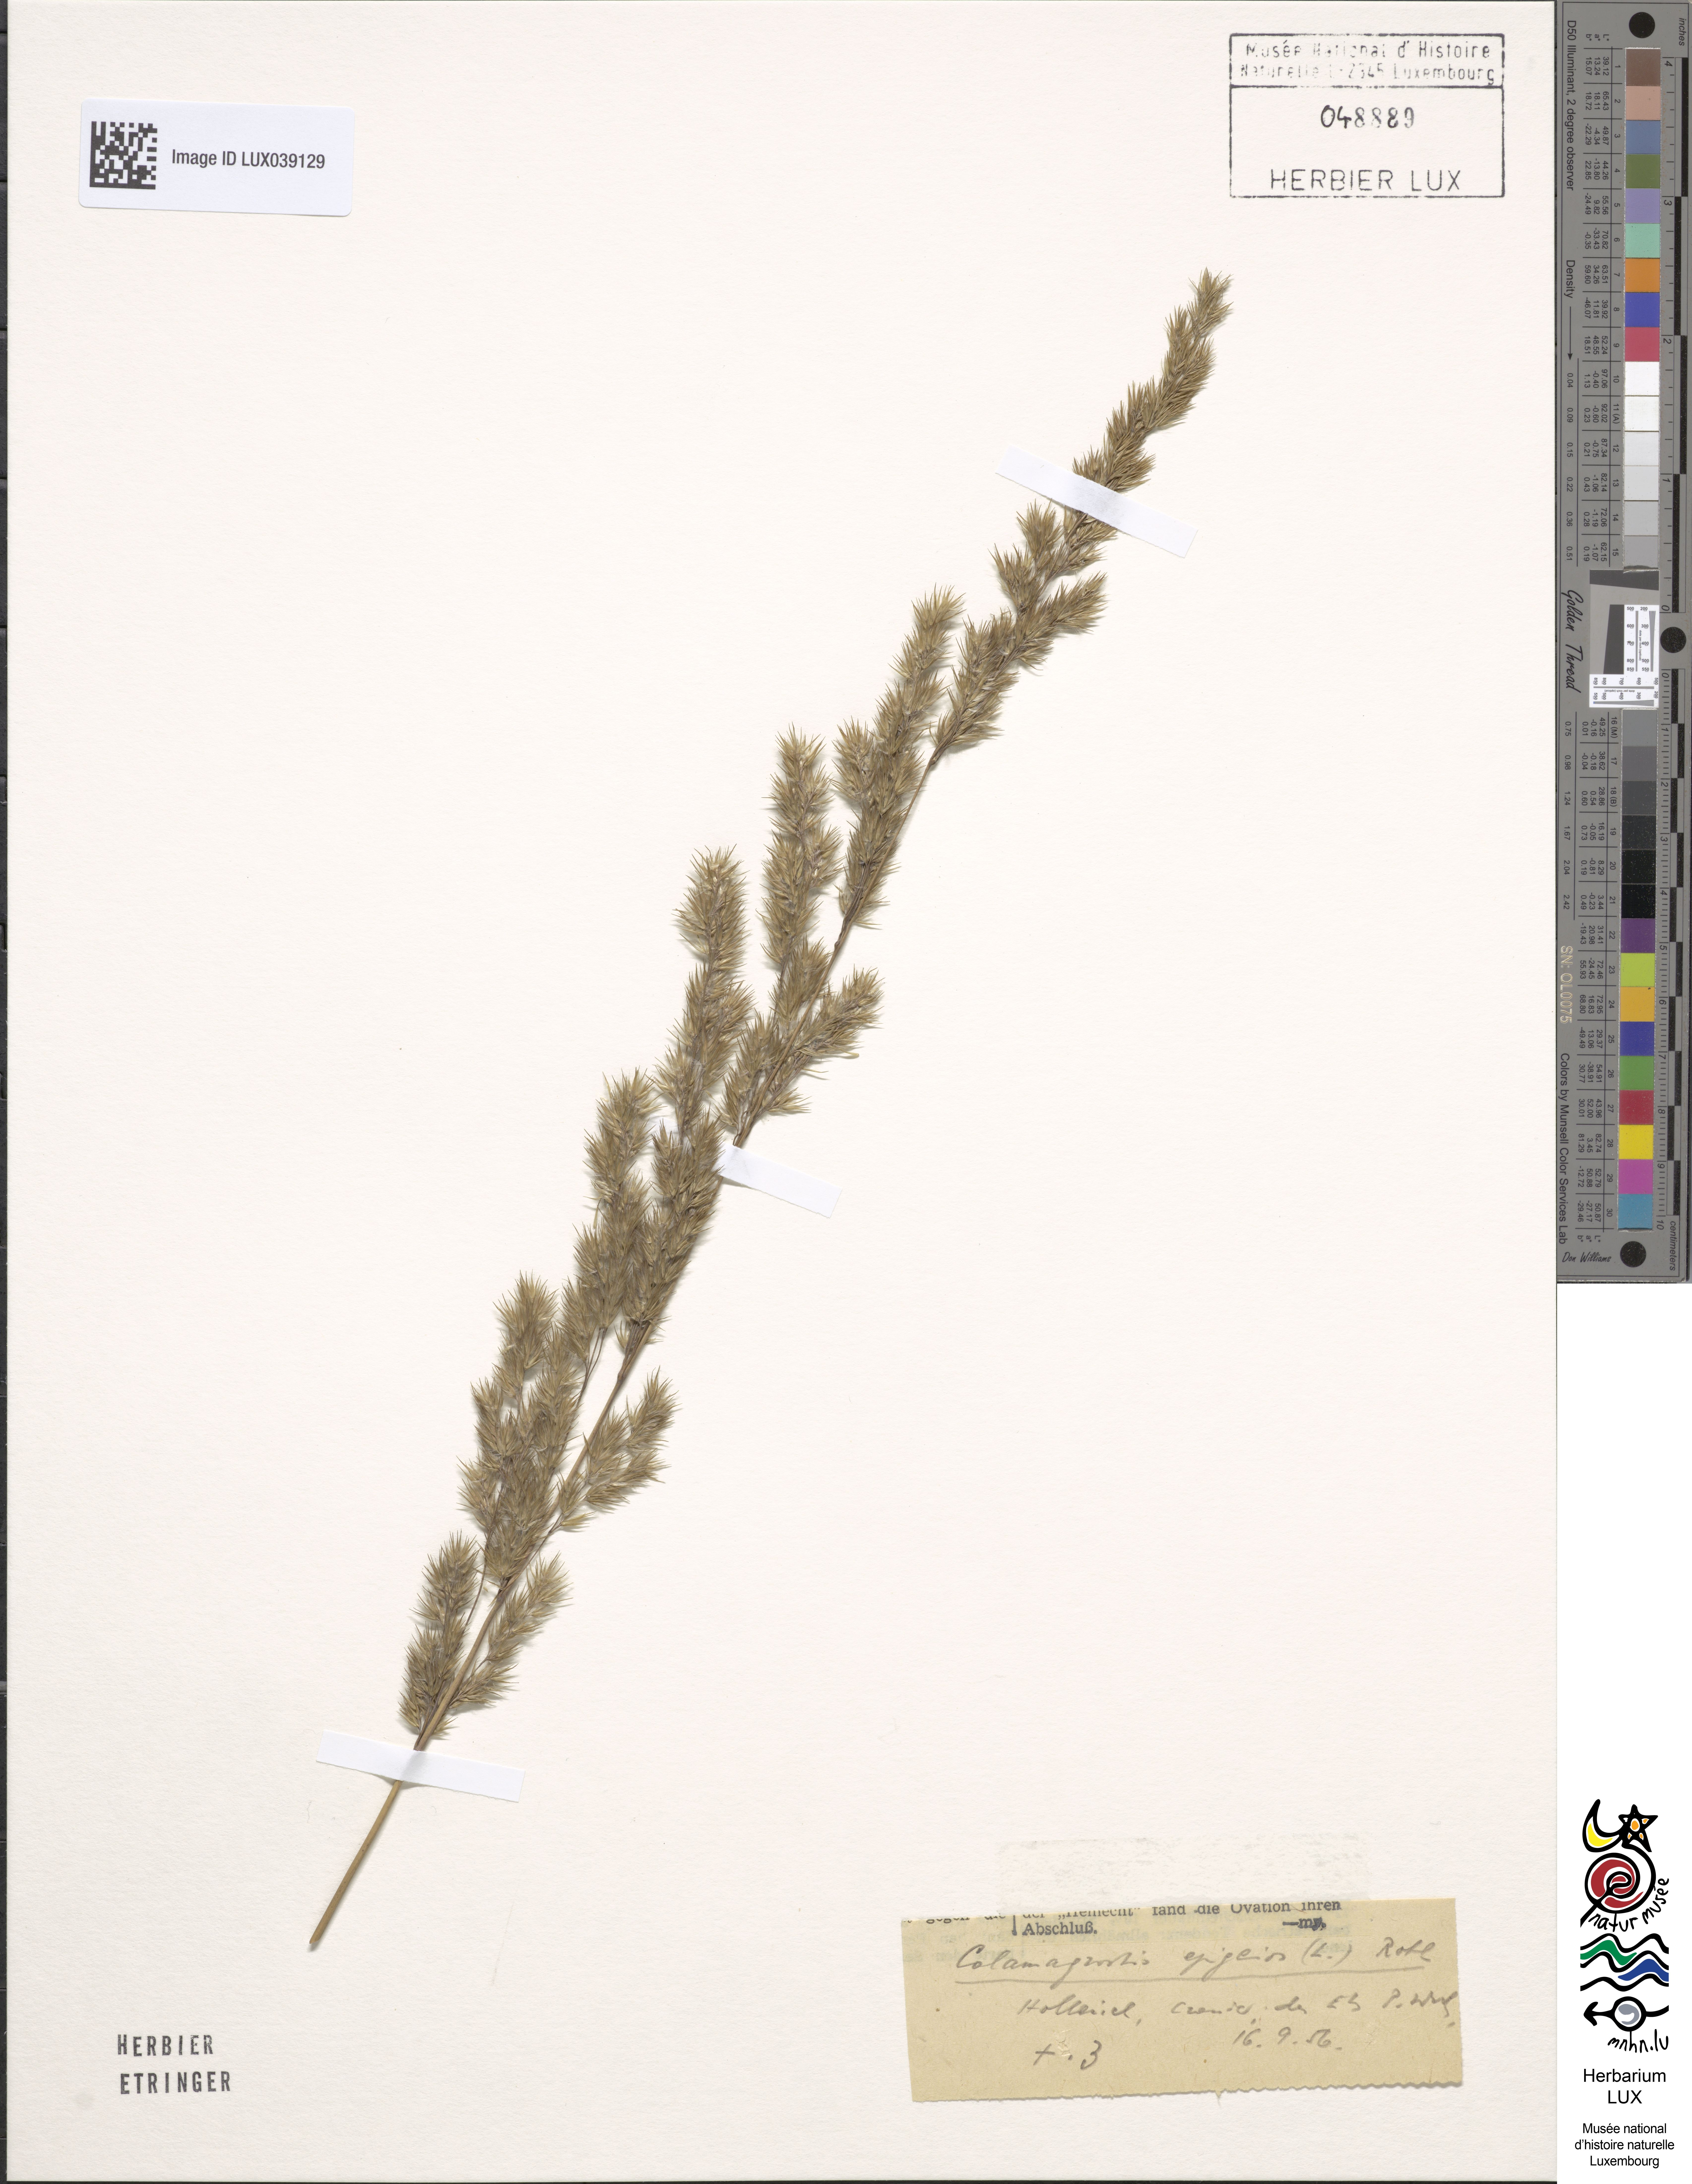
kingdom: Plantae
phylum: Tracheophyta
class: Liliopsida
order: Poales
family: Poaceae
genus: Calamagrostis
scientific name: Calamagrostis epigejos
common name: Wood small-reed
